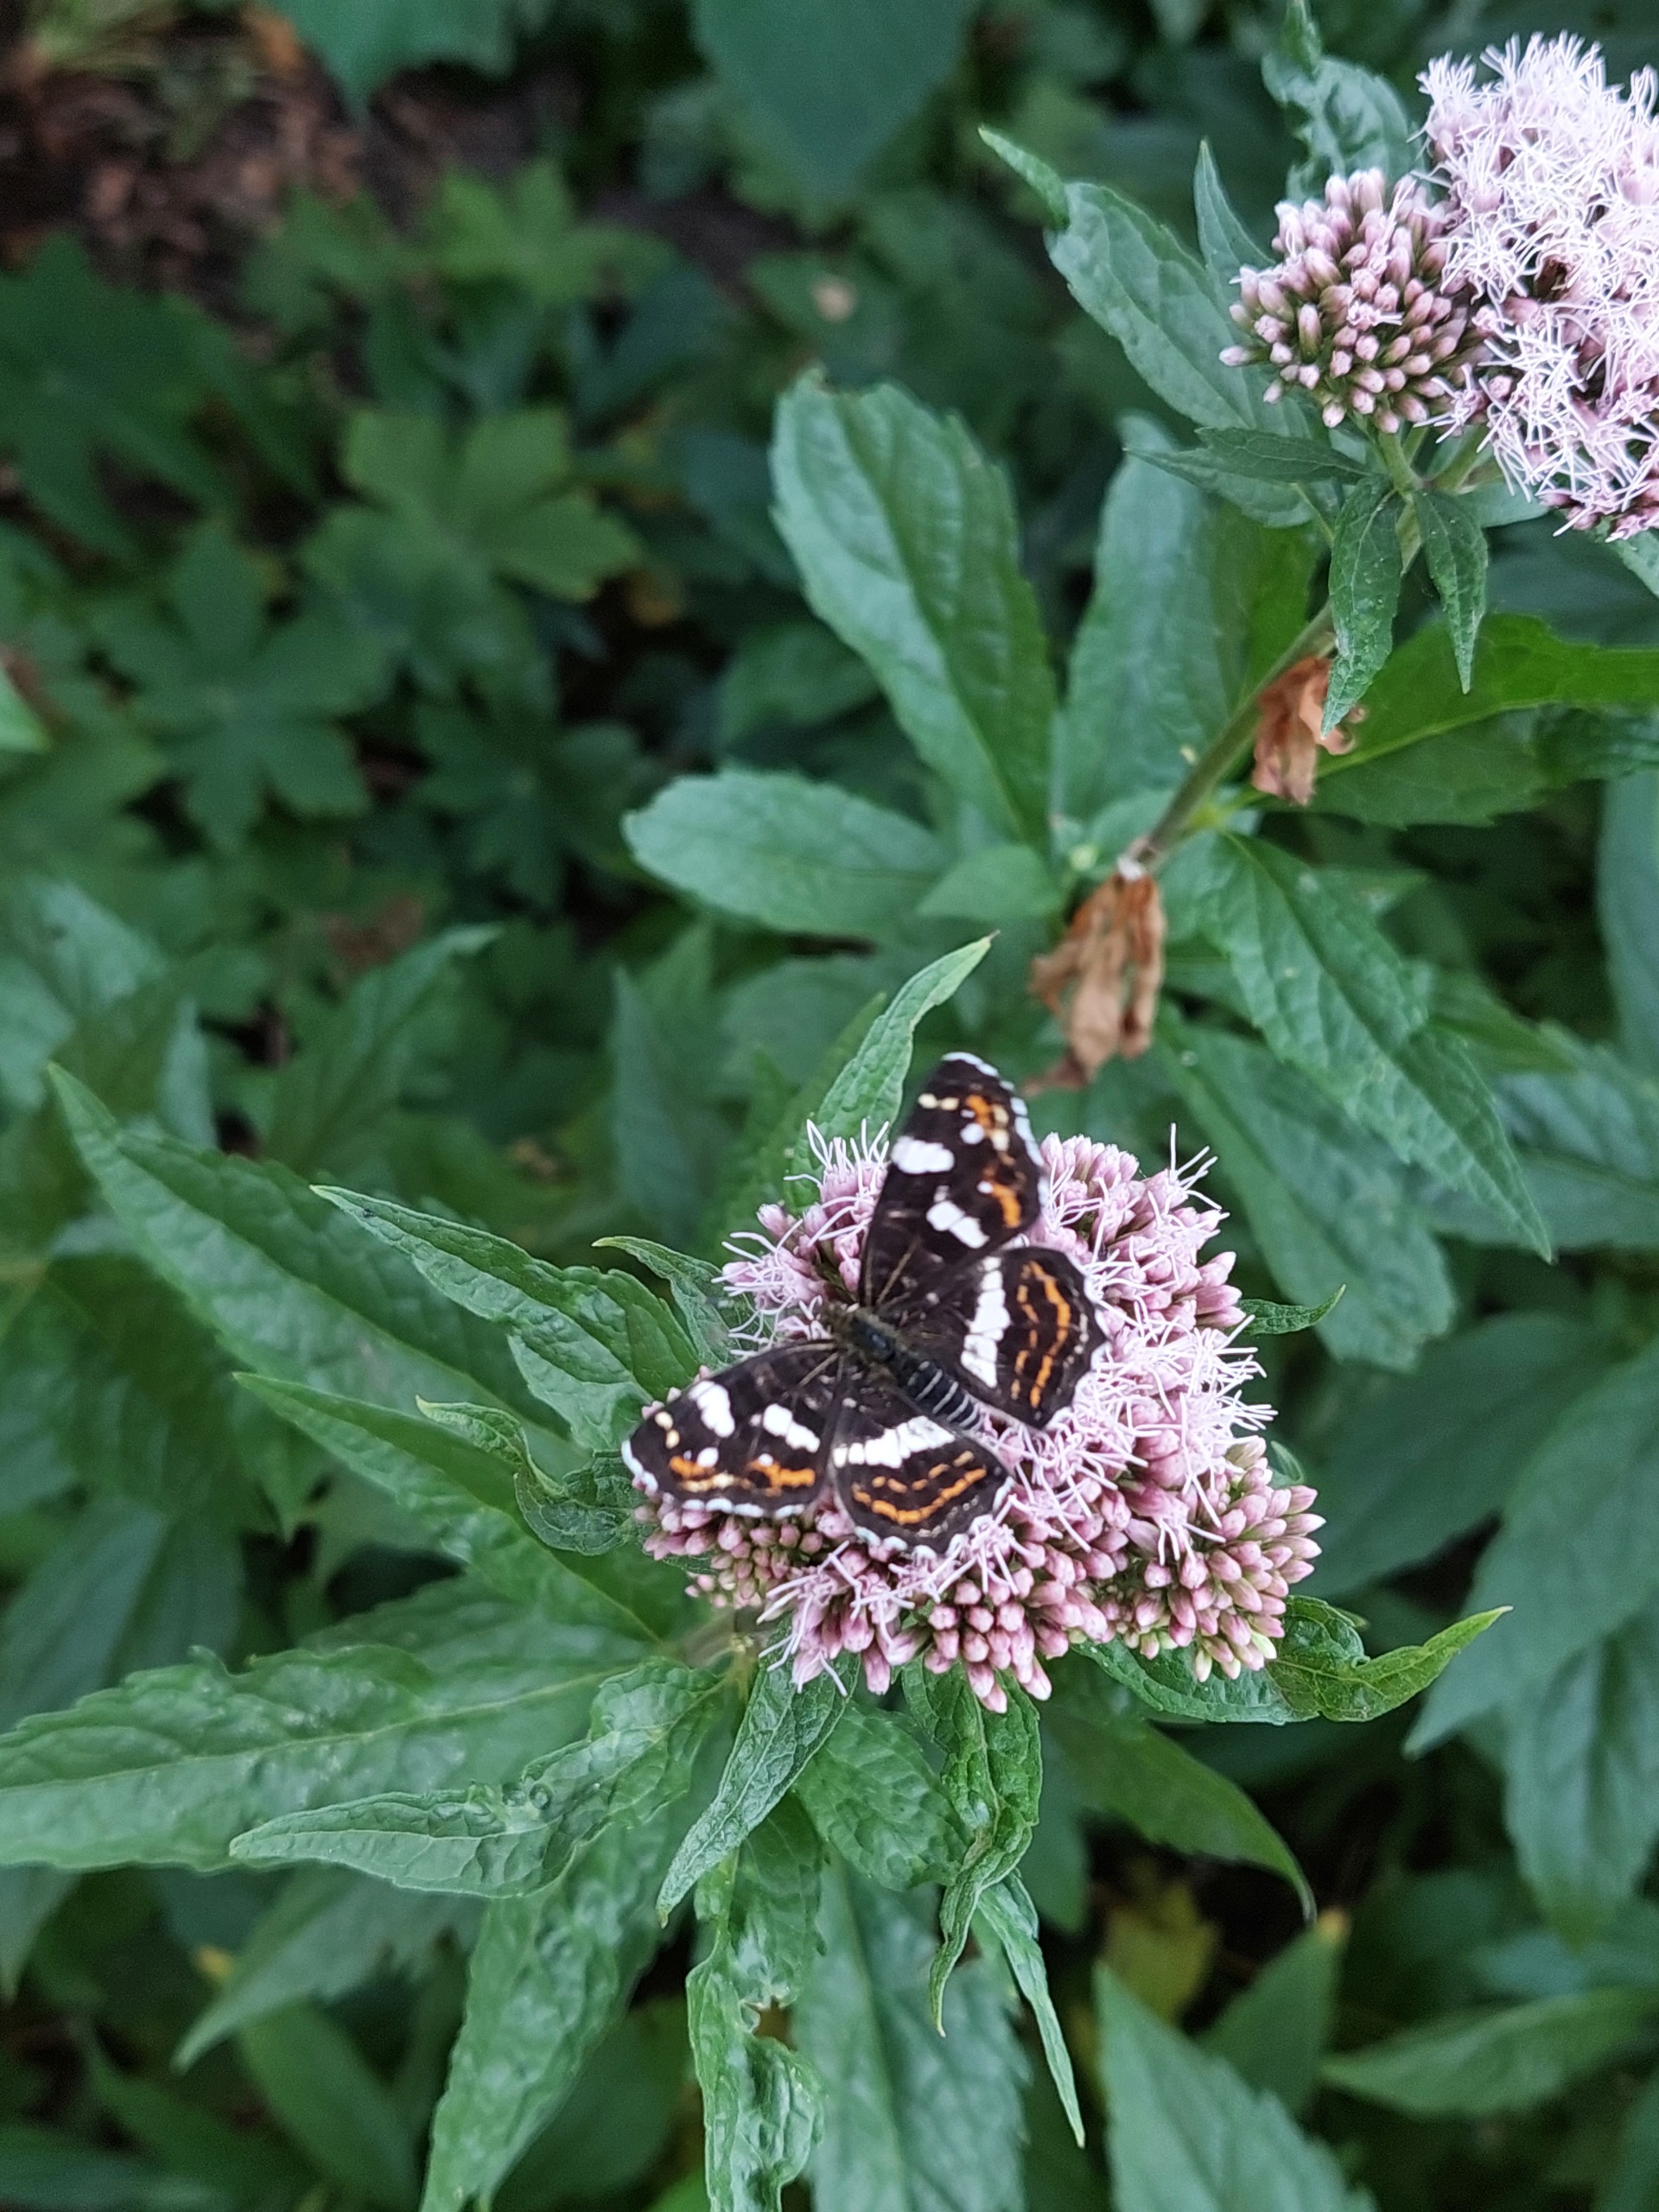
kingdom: Animalia
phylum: Arthropoda
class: Insecta
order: Lepidoptera
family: Nymphalidae
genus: Araschnia
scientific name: Araschnia levana
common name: Nældesommerfugl
